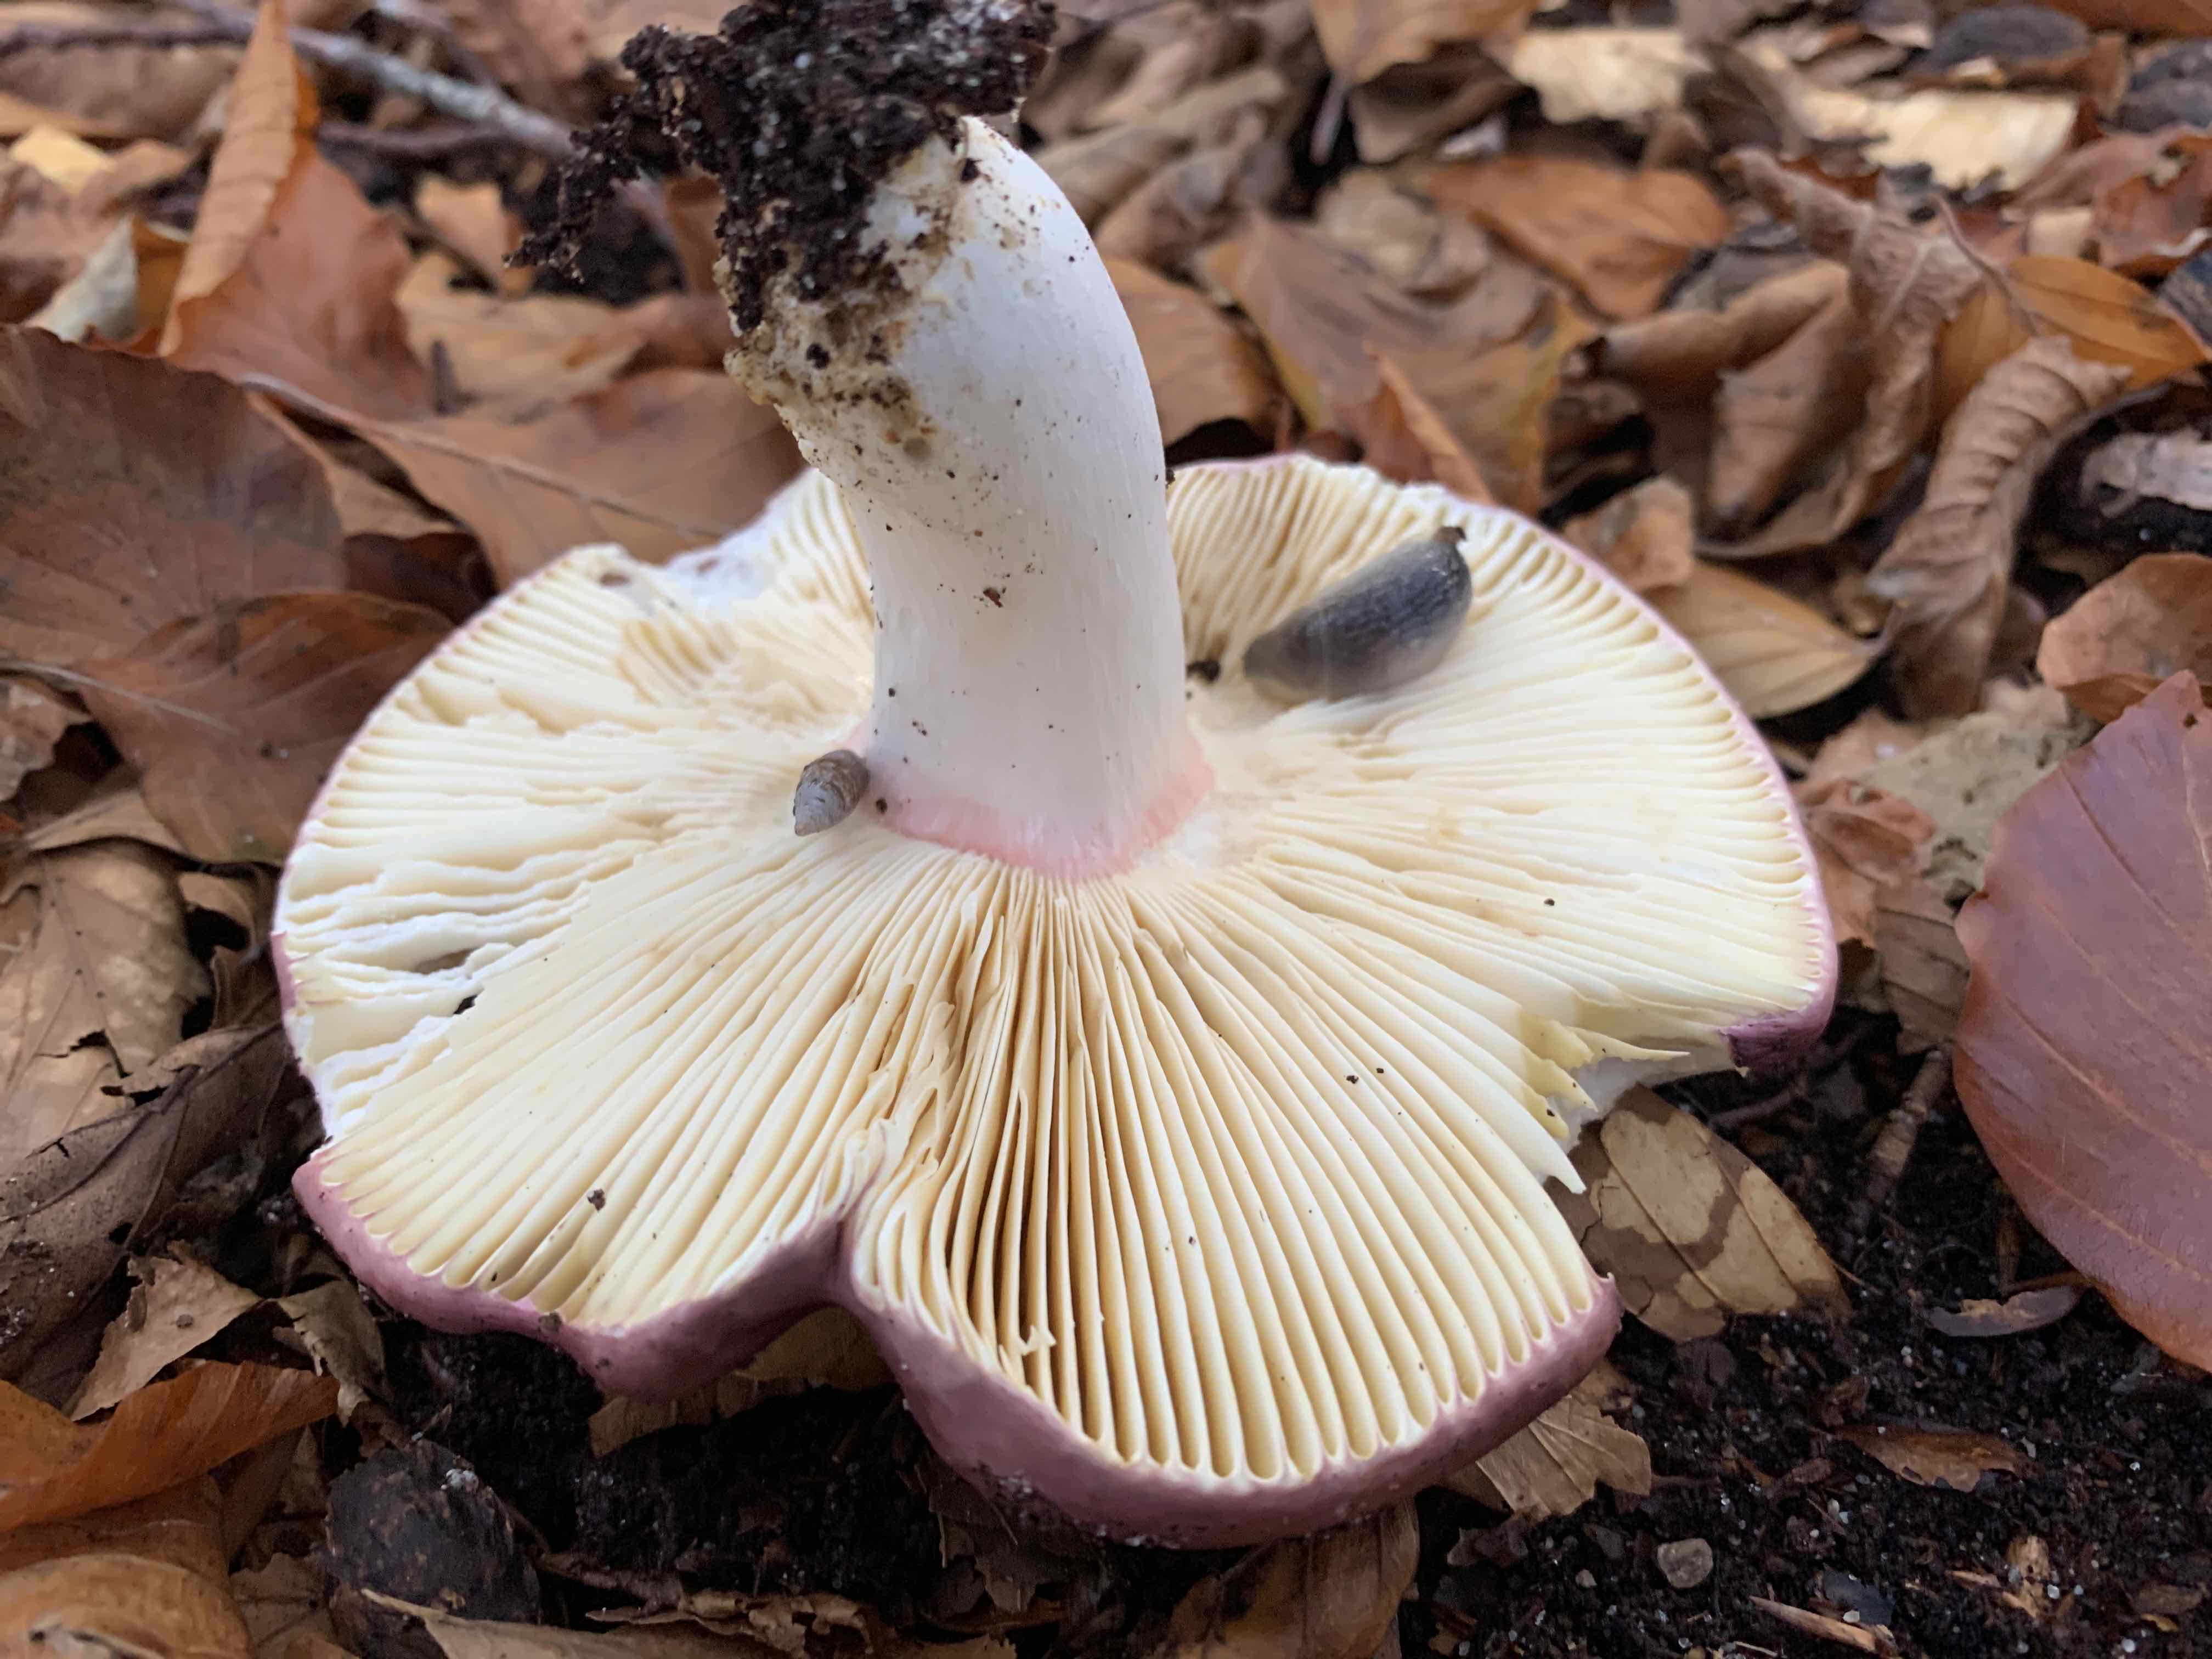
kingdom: Fungi
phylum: Basidiomycota
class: Agaricomycetes
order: Russulales
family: Russulaceae
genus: Russula
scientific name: Russula olivacea
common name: stor skørhat
